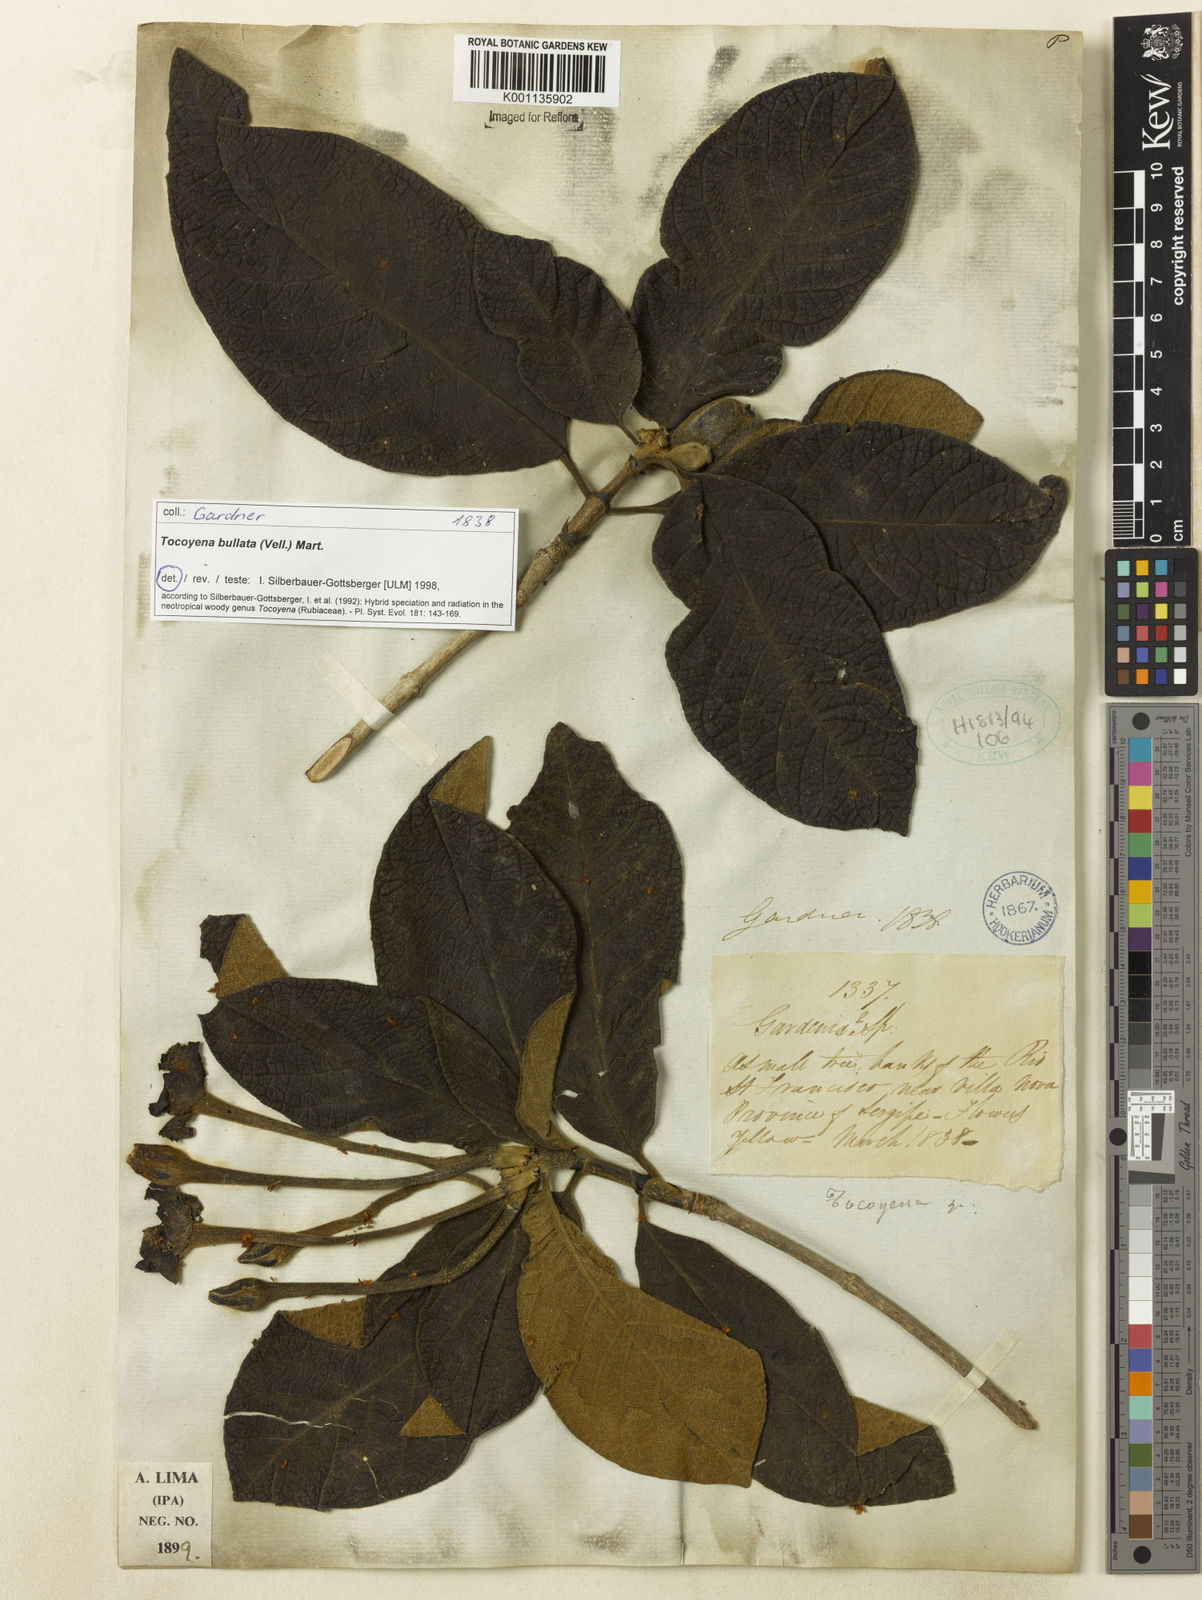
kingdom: Plantae
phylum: Tracheophyta
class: Magnoliopsida
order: Gentianales
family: Rubiaceae
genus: Tocoyena
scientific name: Tocoyena bullata
